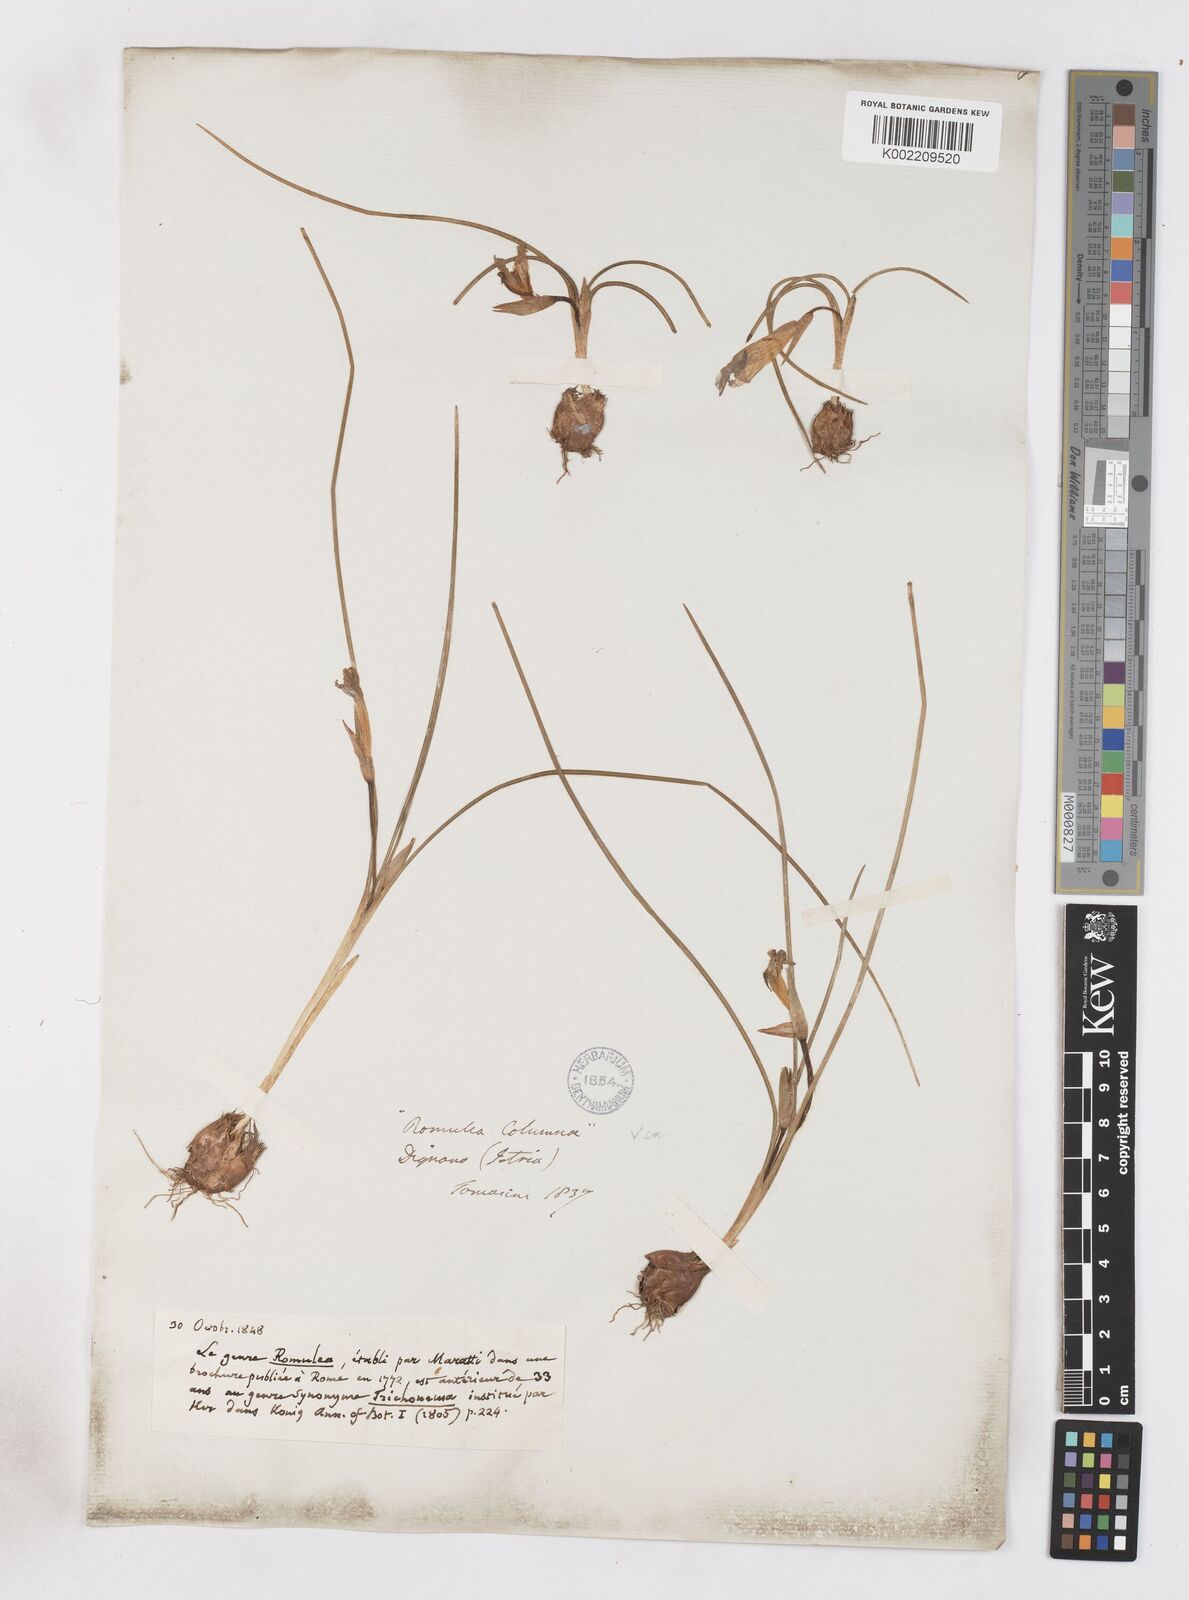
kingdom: Plantae
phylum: Tracheophyta
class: Liliopsida
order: Asparagales
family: Iridaceae
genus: Romulea
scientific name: Romulea bulbocodium
